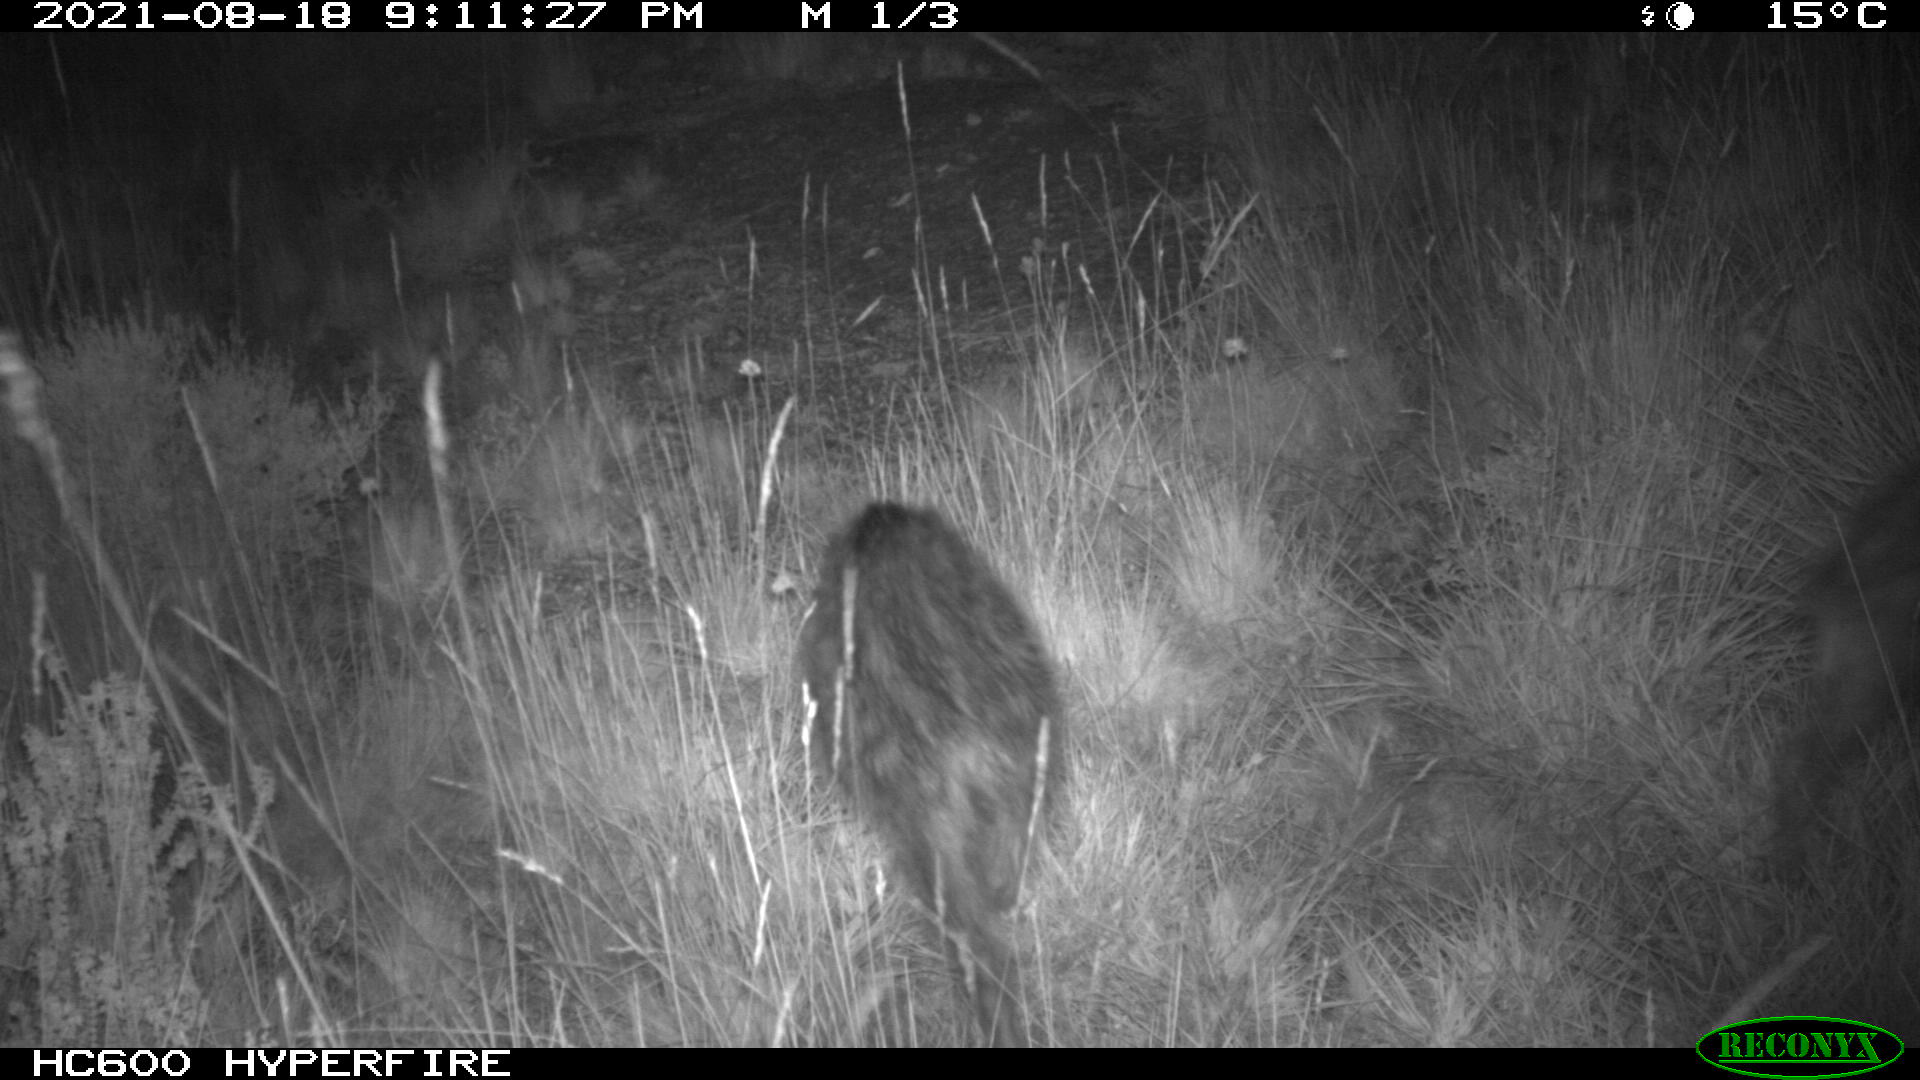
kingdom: Animalia
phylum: Chordata
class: Mammalia
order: Artiodactyla
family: Suidae
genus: Sus
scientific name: Sus scrofa
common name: Wild boar
